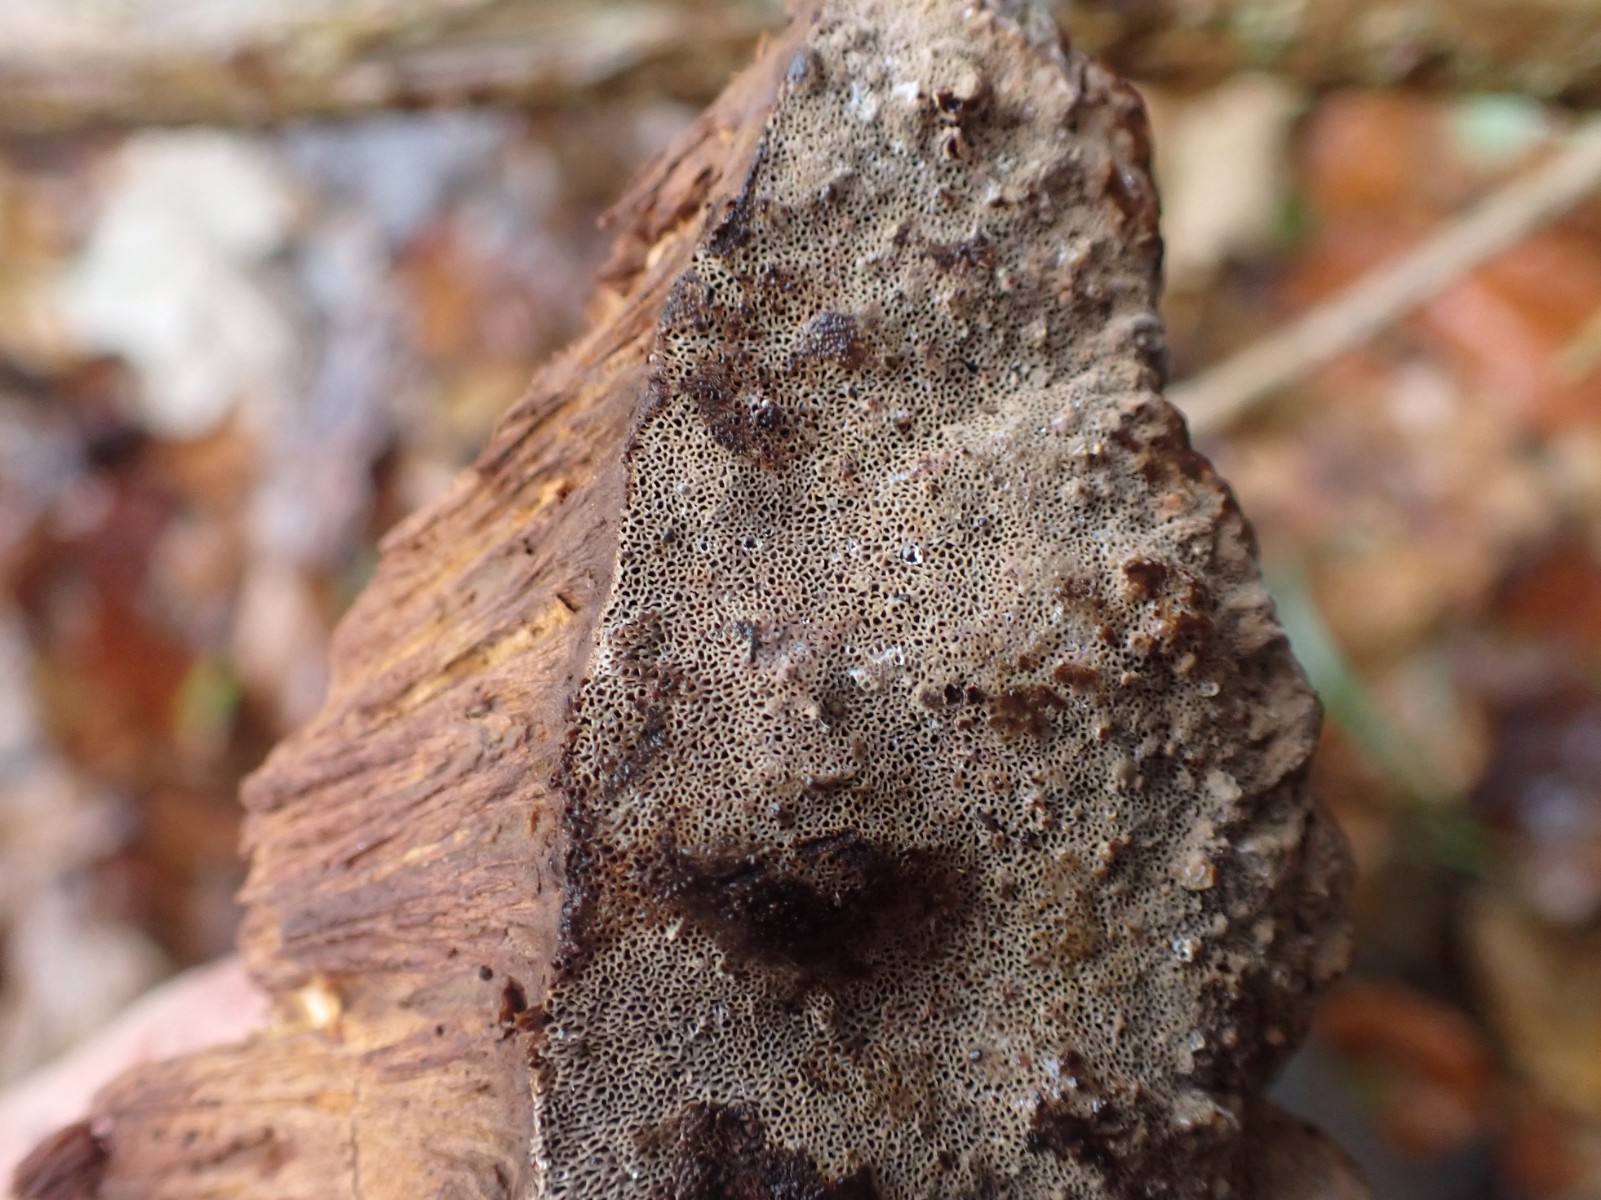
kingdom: Fungi
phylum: Basidiomycota
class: Agaricomycetes
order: Hymenochaetales
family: Hymenochaetaceae
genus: Pseudoinonotus
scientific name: Pseudoinonotus dryadeus
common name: ege-spejlporesvamp
